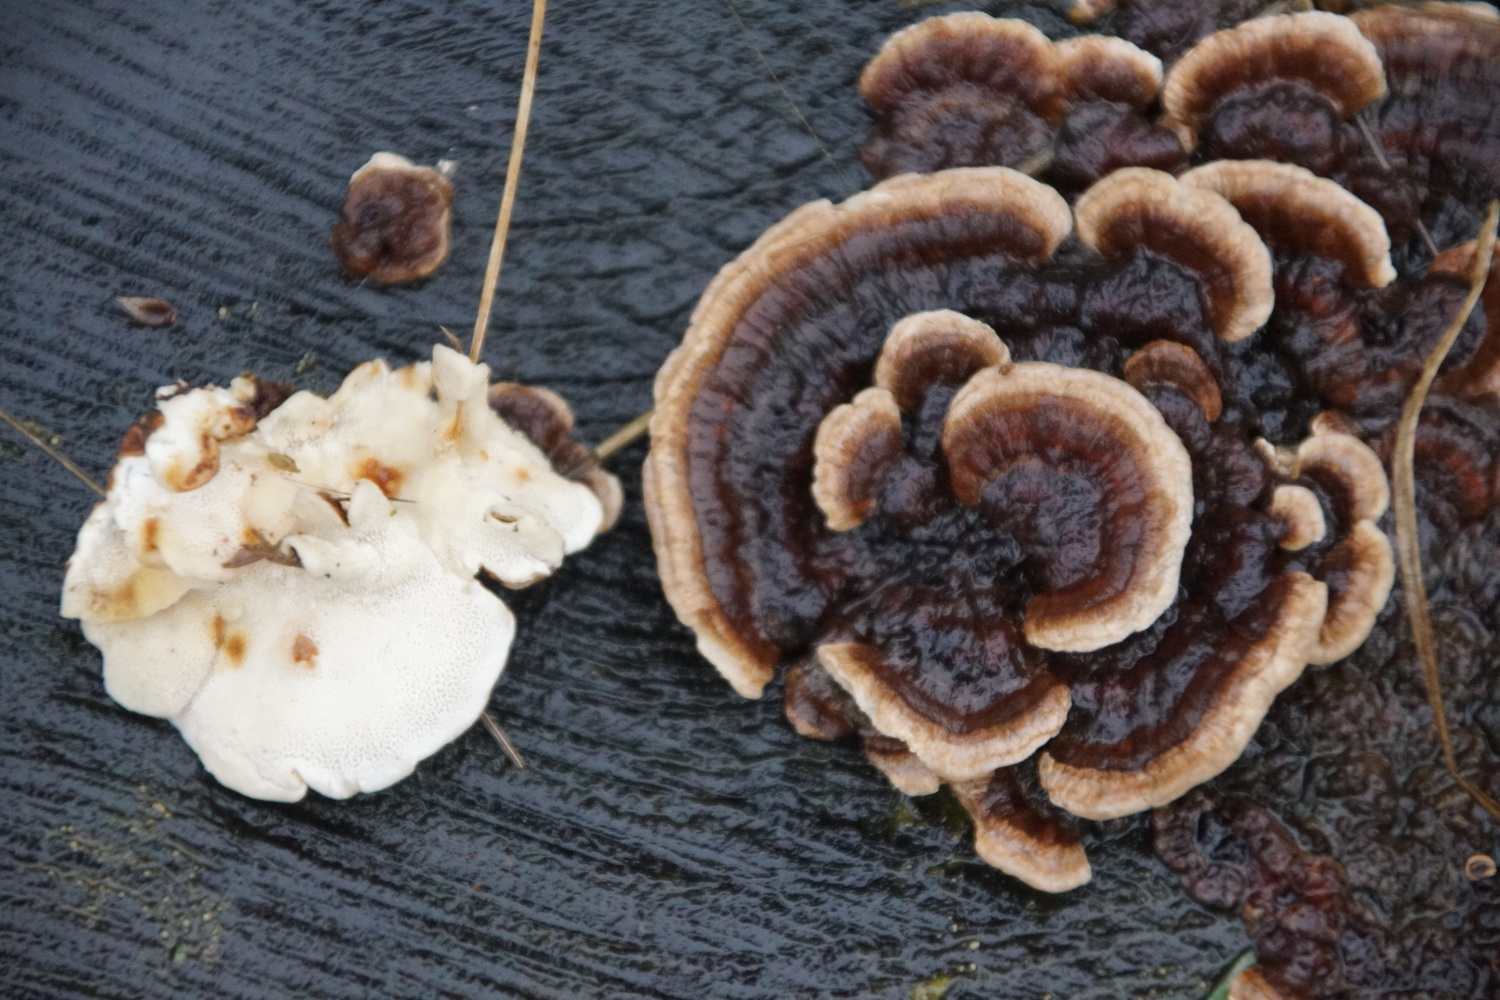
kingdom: Fungi
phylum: Basidiomycota
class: Agaricomycetes
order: Polyporales
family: Polyporaceae
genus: Trametes
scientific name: Trametes versicolor
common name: broget læderporesvamp
